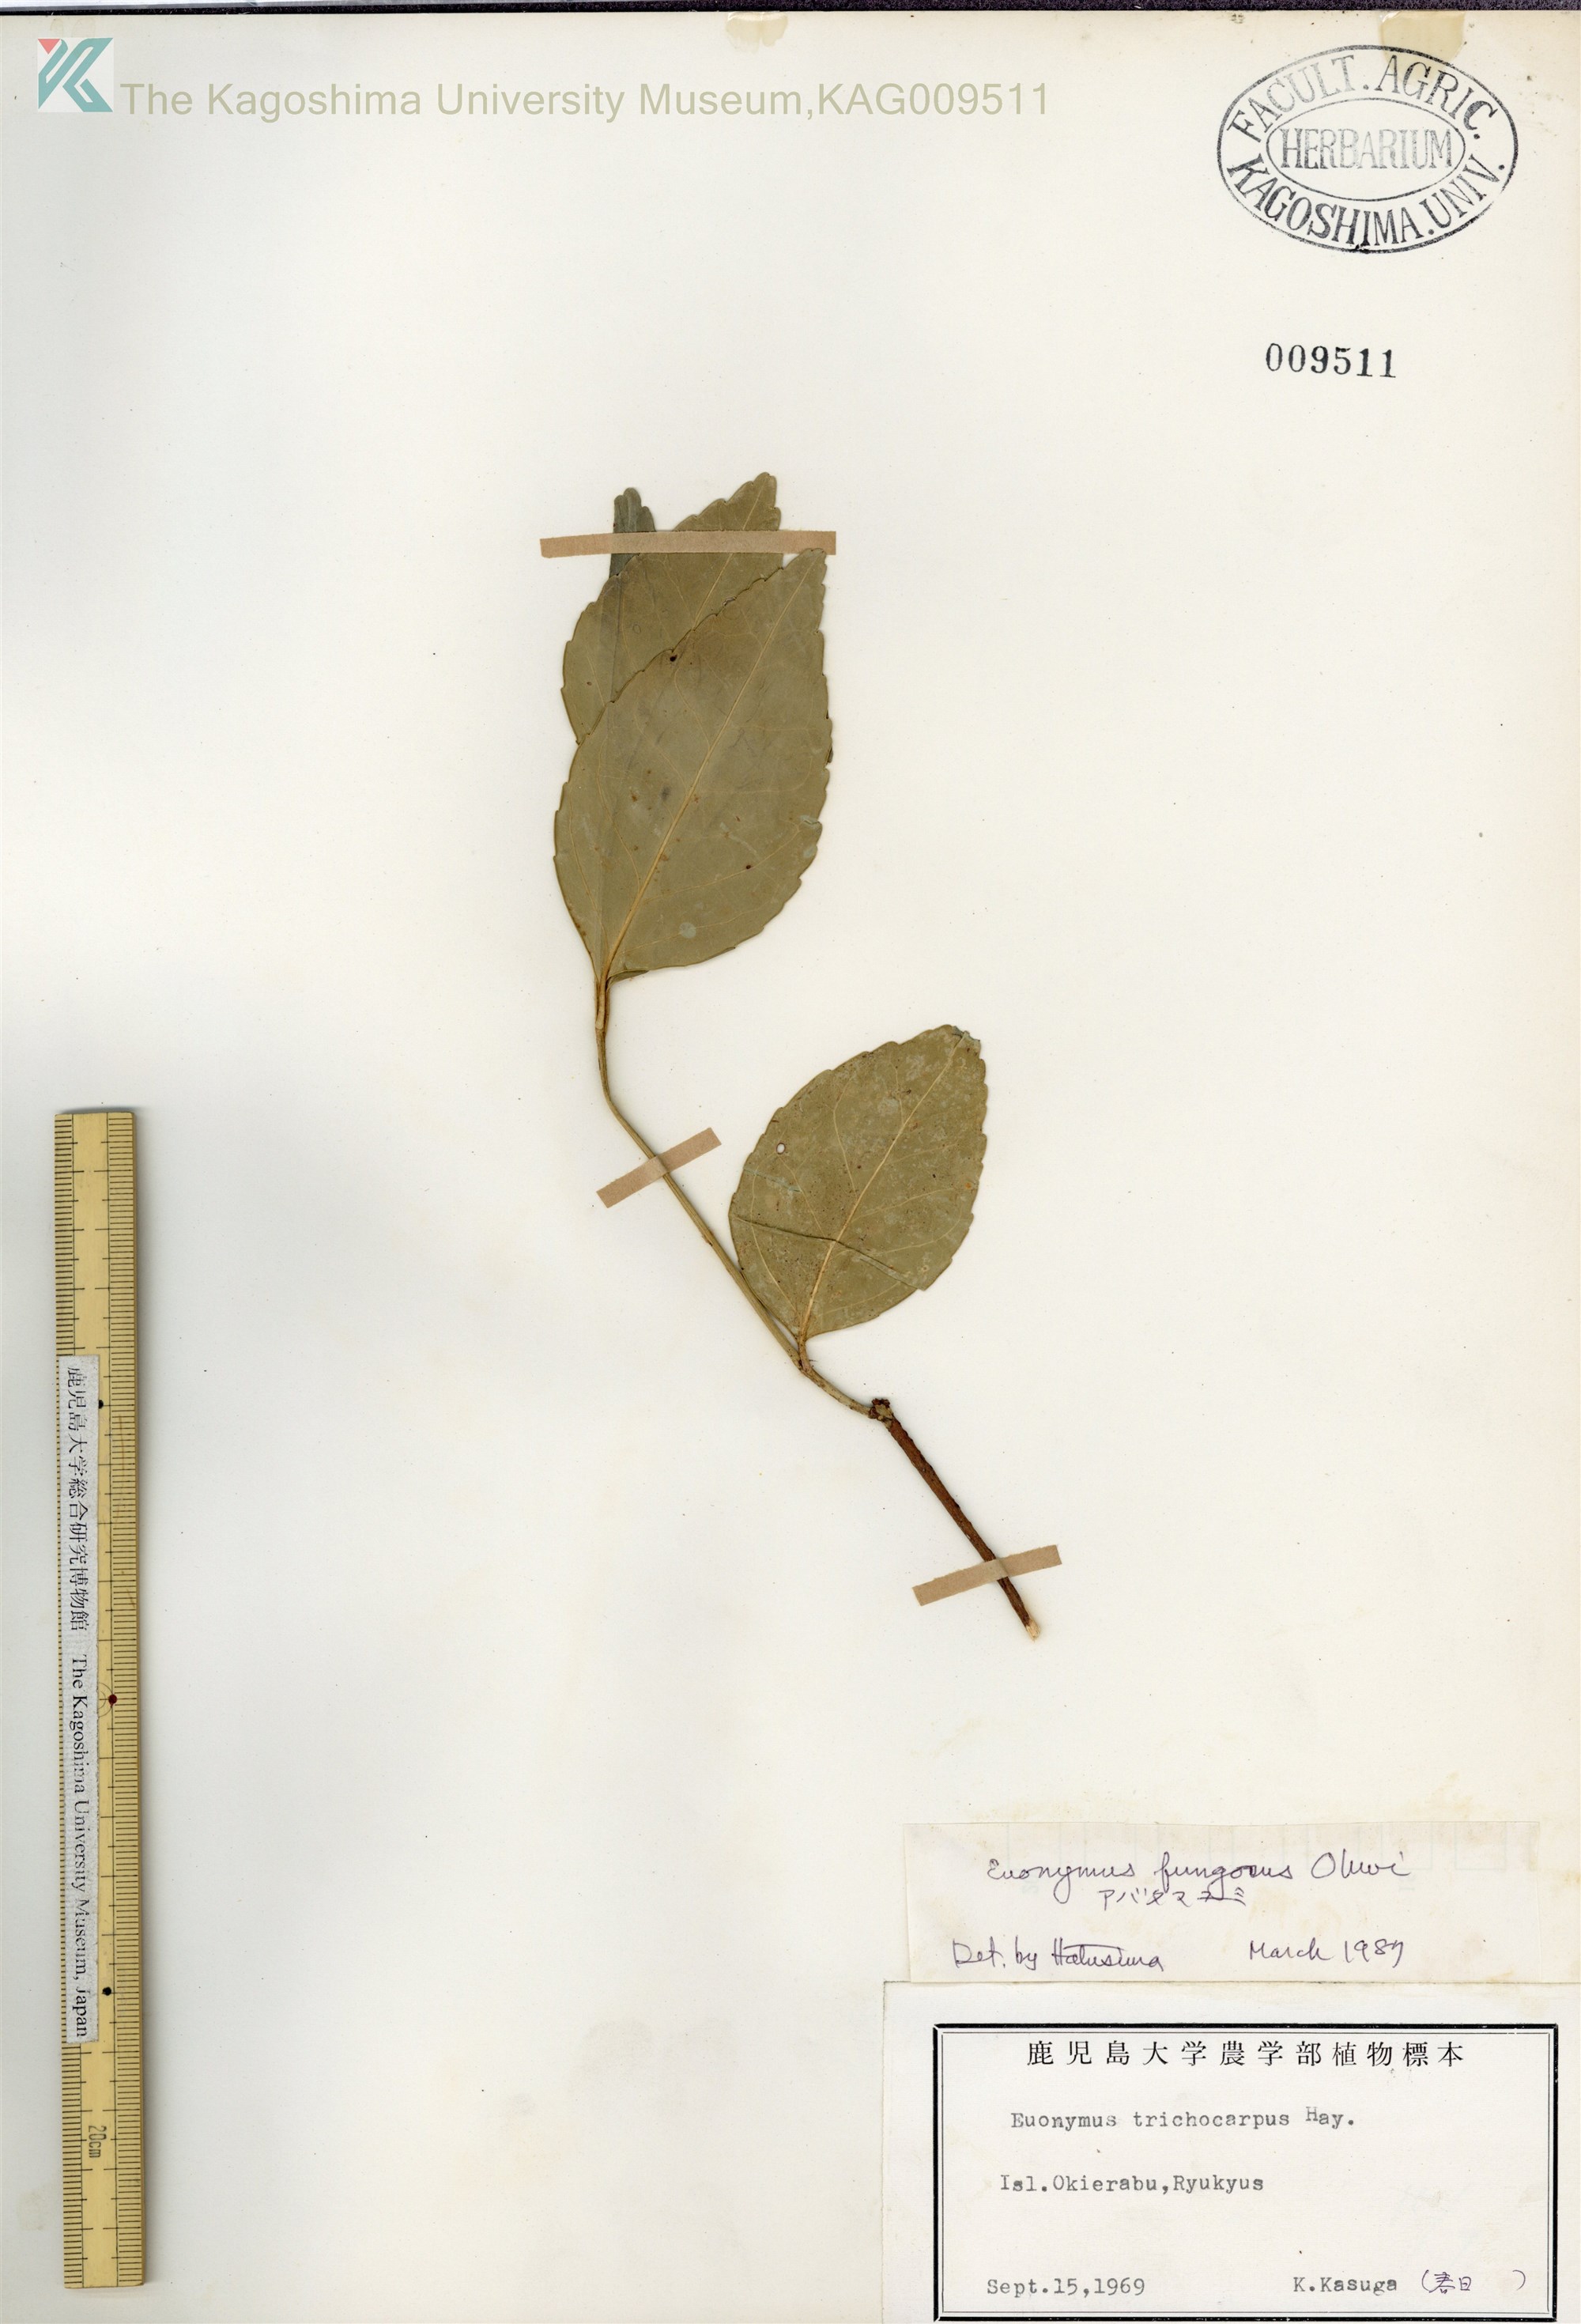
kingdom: Plantae
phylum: Tracheophyta
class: Magnoliopsida
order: Celastrales
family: Celastraceae
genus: Euonymus
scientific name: Euonymus echinatus
